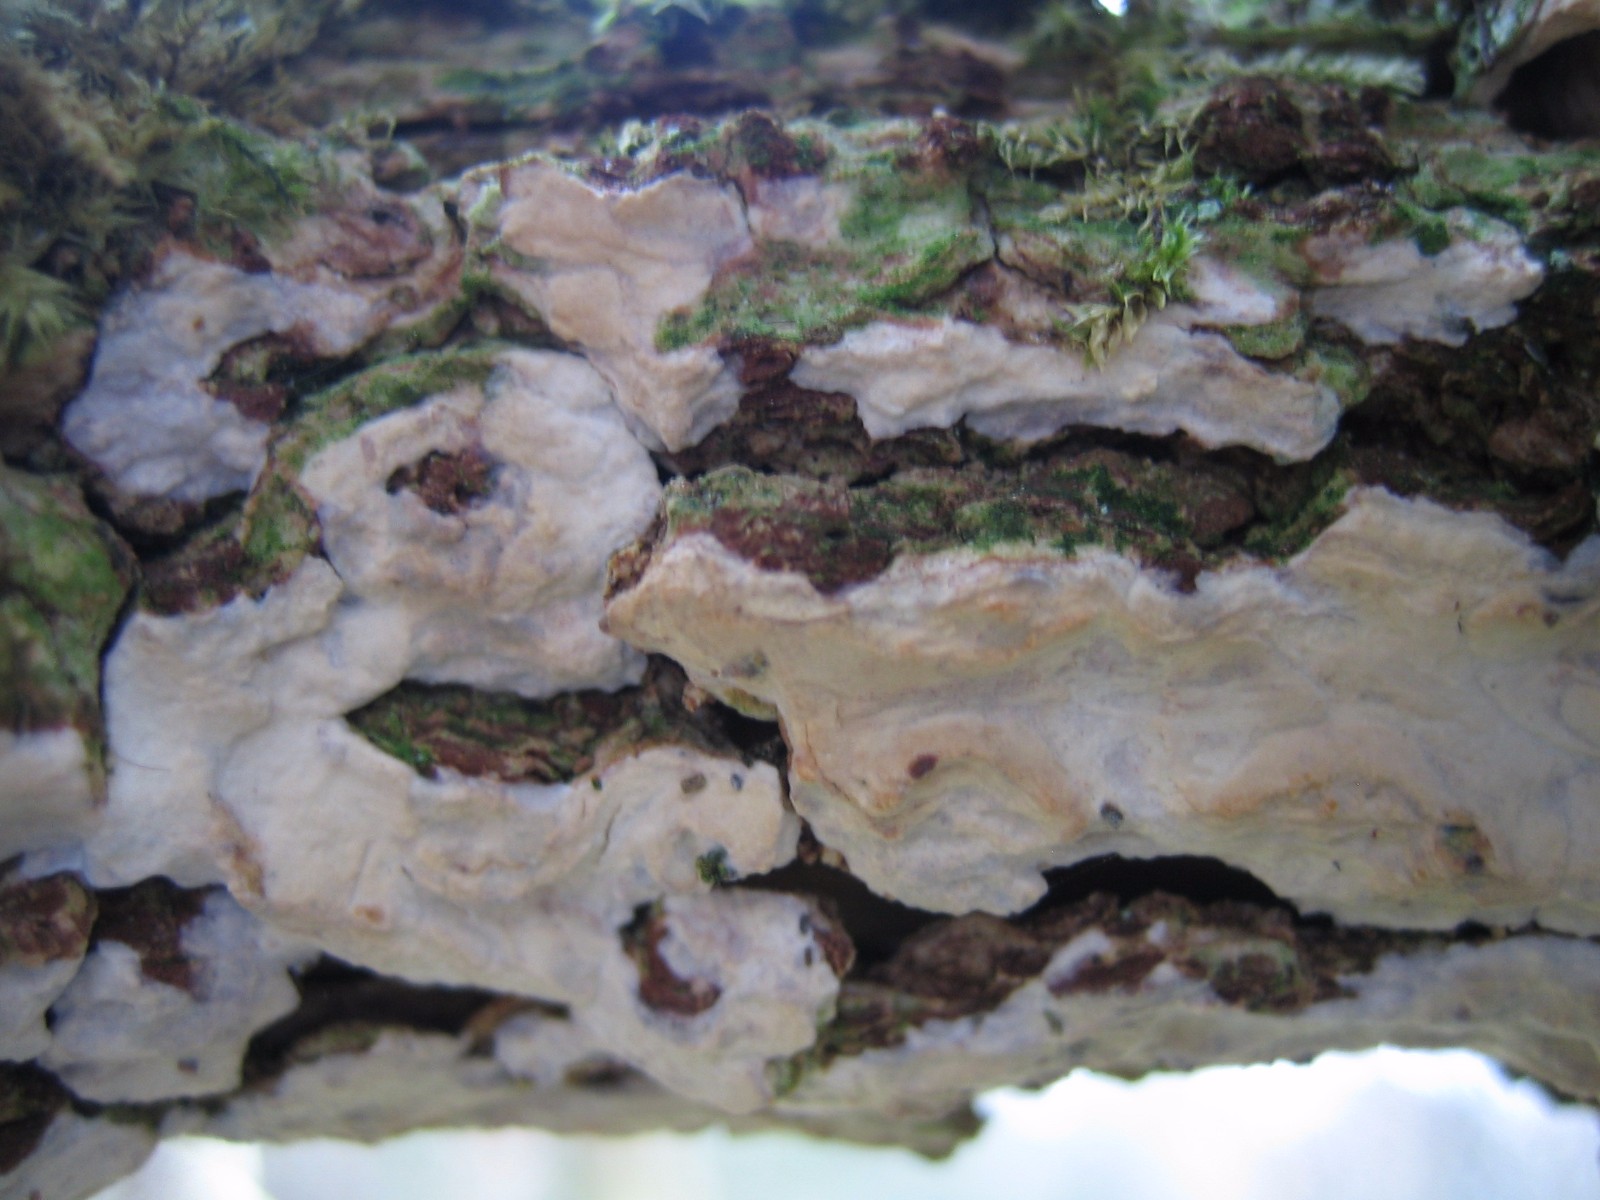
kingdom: Fungi
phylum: Basidiomycota
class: Agaricomycetes
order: Corticiales
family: Corticiaceae
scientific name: Corticiaceae
